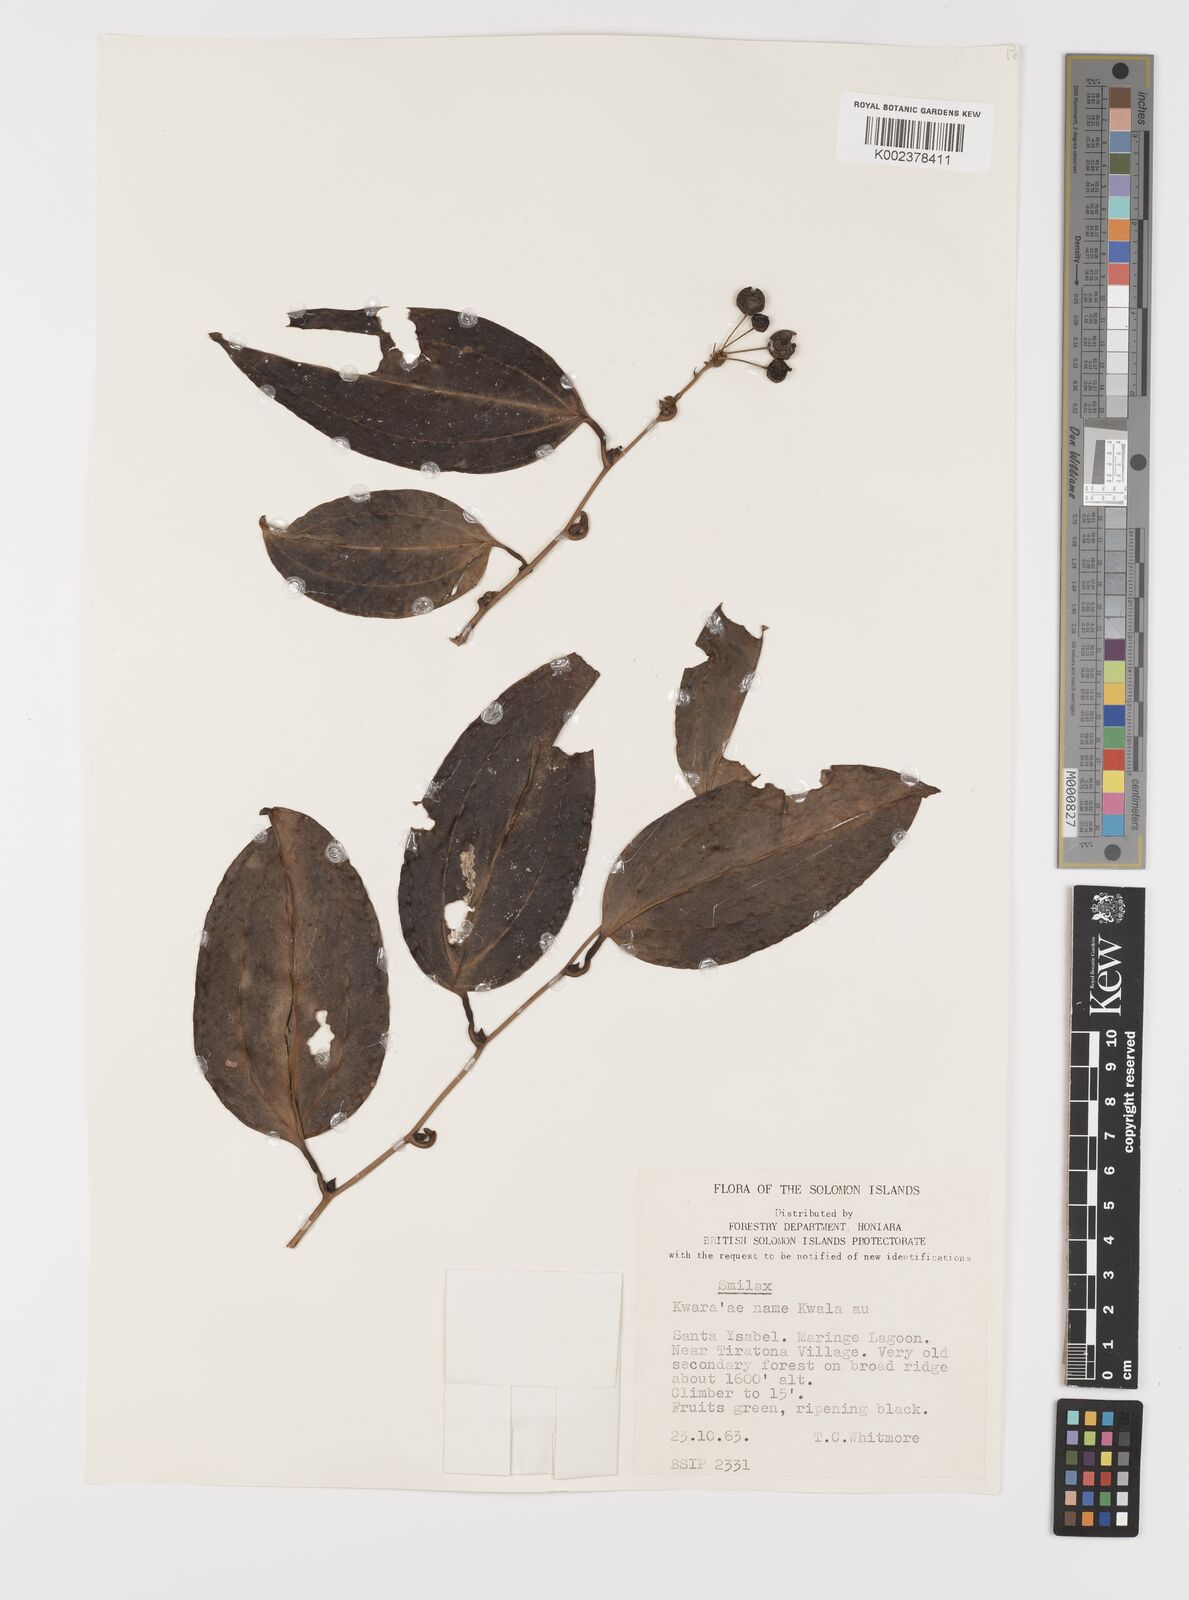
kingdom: Plantae
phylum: Tracheophyta
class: Liliopsida
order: Liliales
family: Smilacaceae
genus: Smilax
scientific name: Smilax
